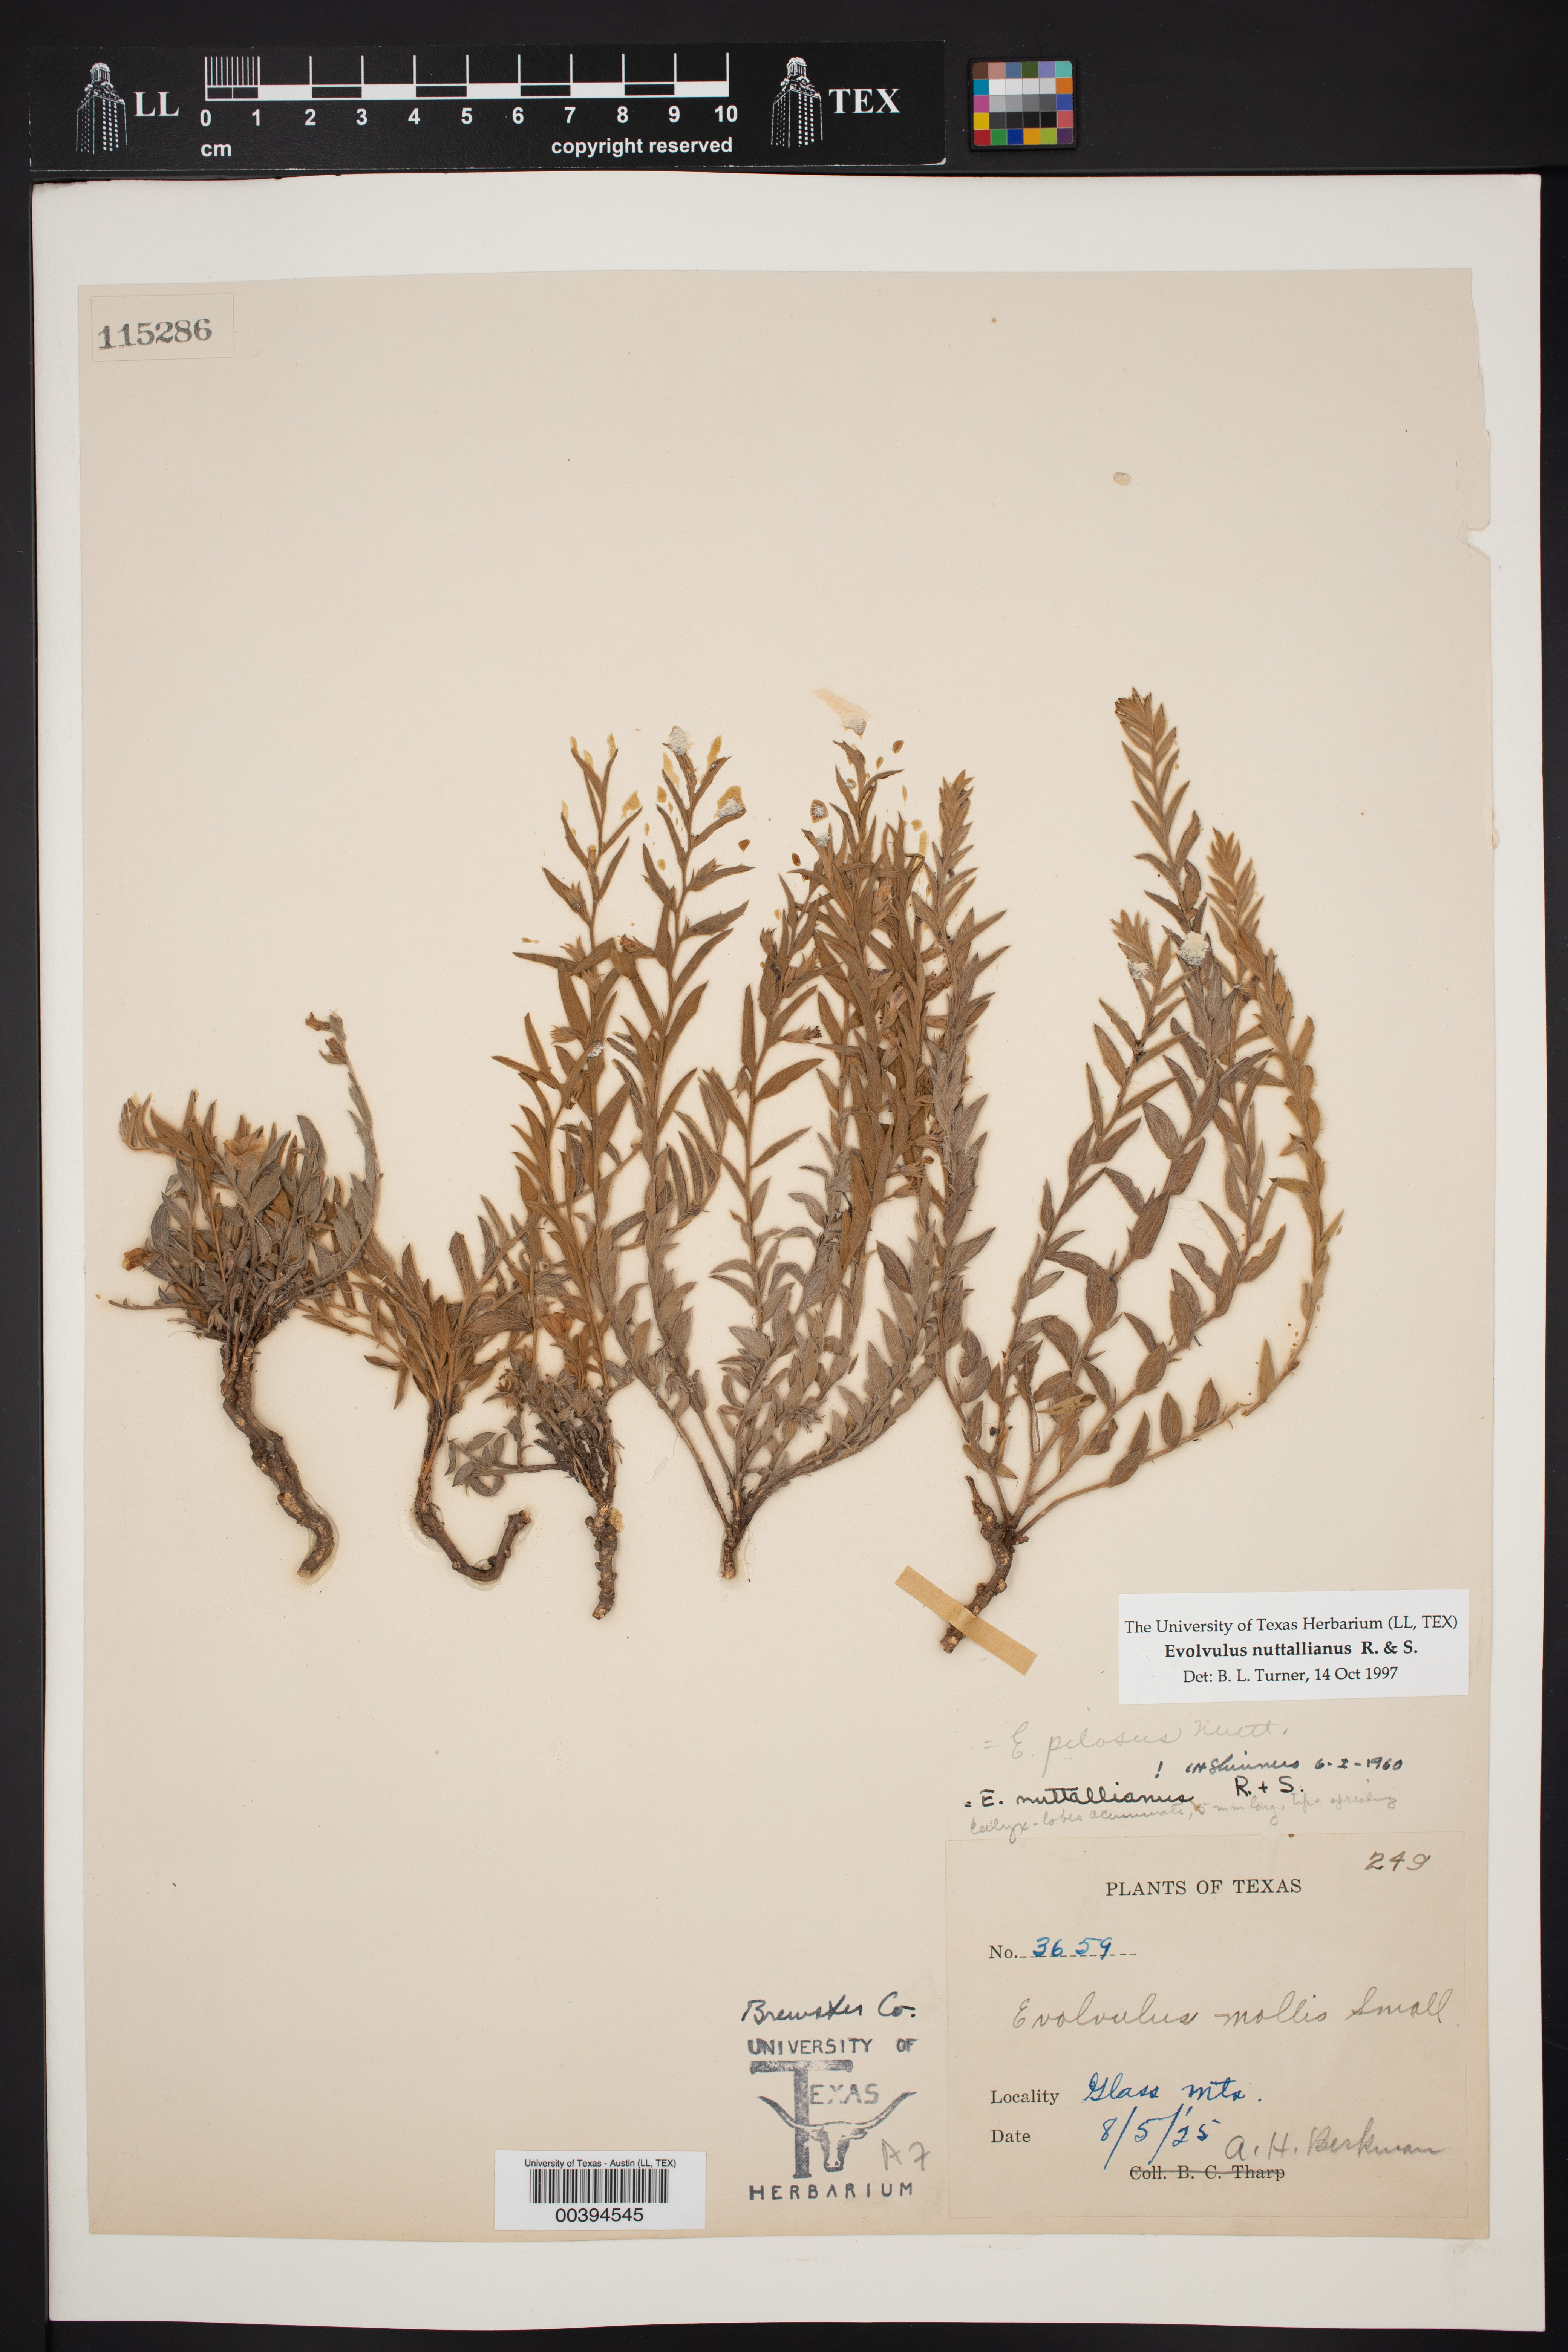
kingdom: Plantae
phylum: Tracheophyta
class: Magnoliopsida
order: Solanales
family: Convolvulaceae
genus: Evolvulus
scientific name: Evolvulus nuttallianus
